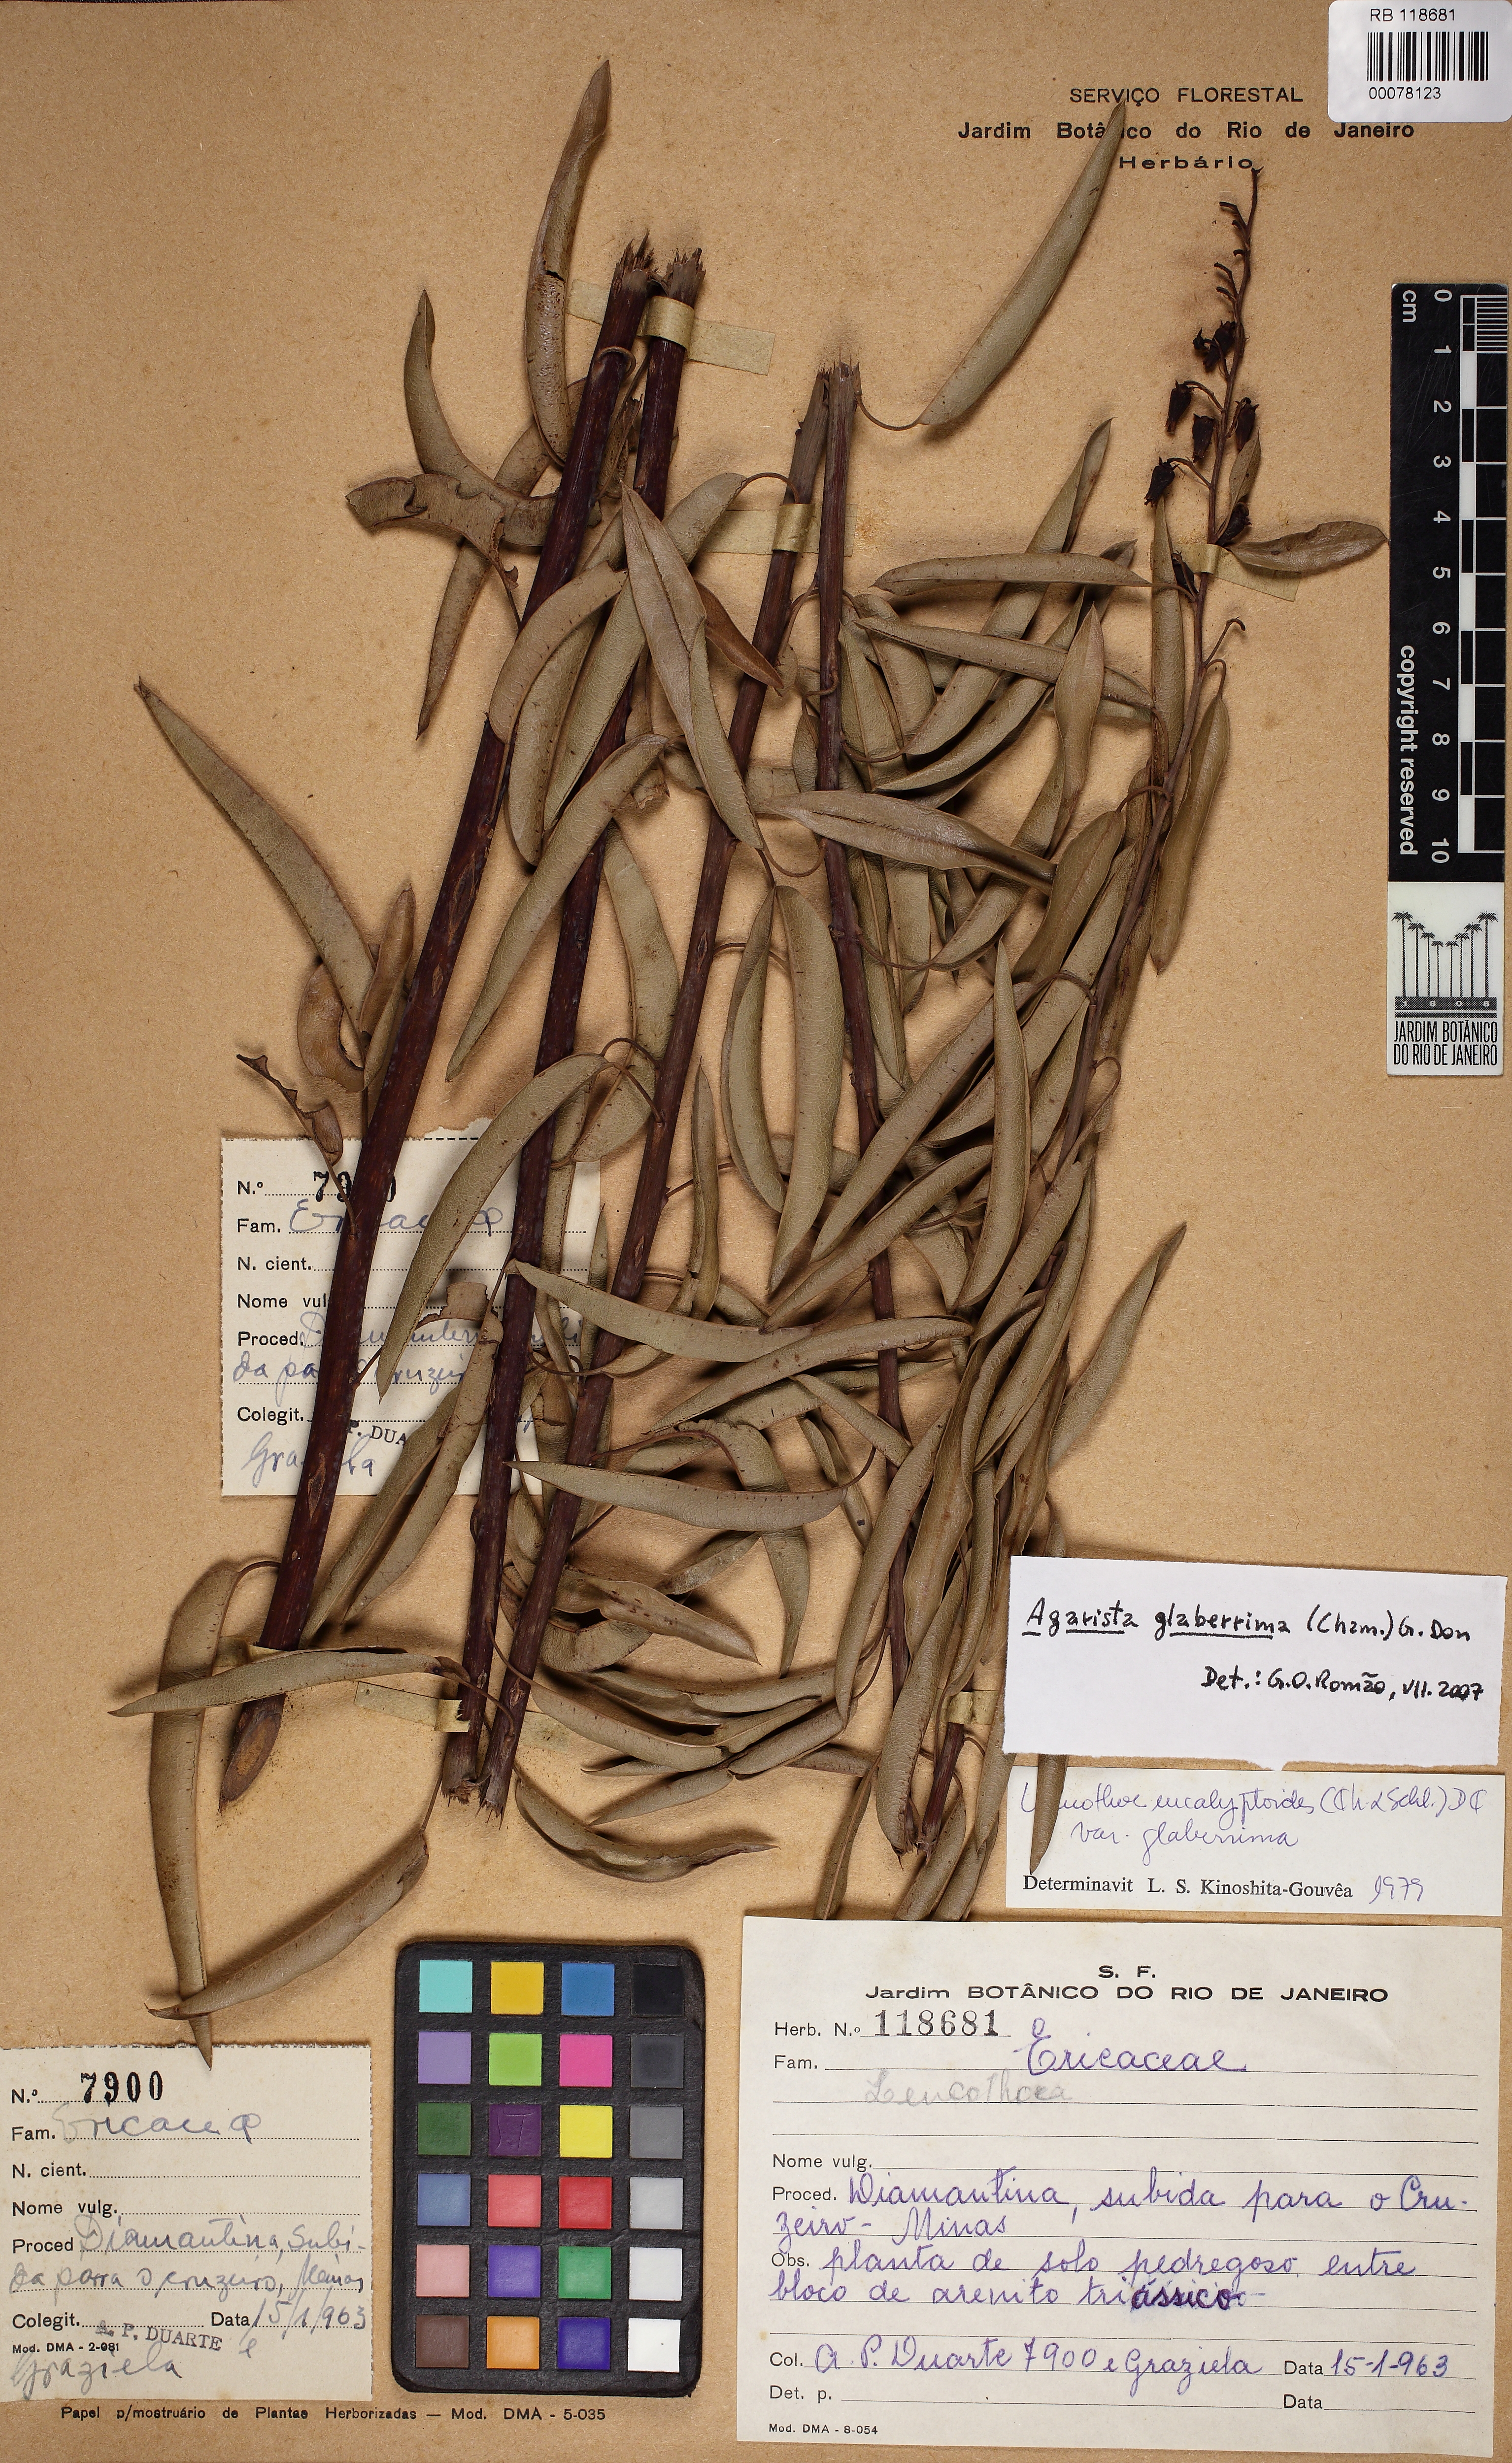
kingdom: Plantae
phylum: Tracheophyta
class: Magnoliopsida
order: Ericales
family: Ericaceae
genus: Agarista
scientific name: Agarista glaberrima
